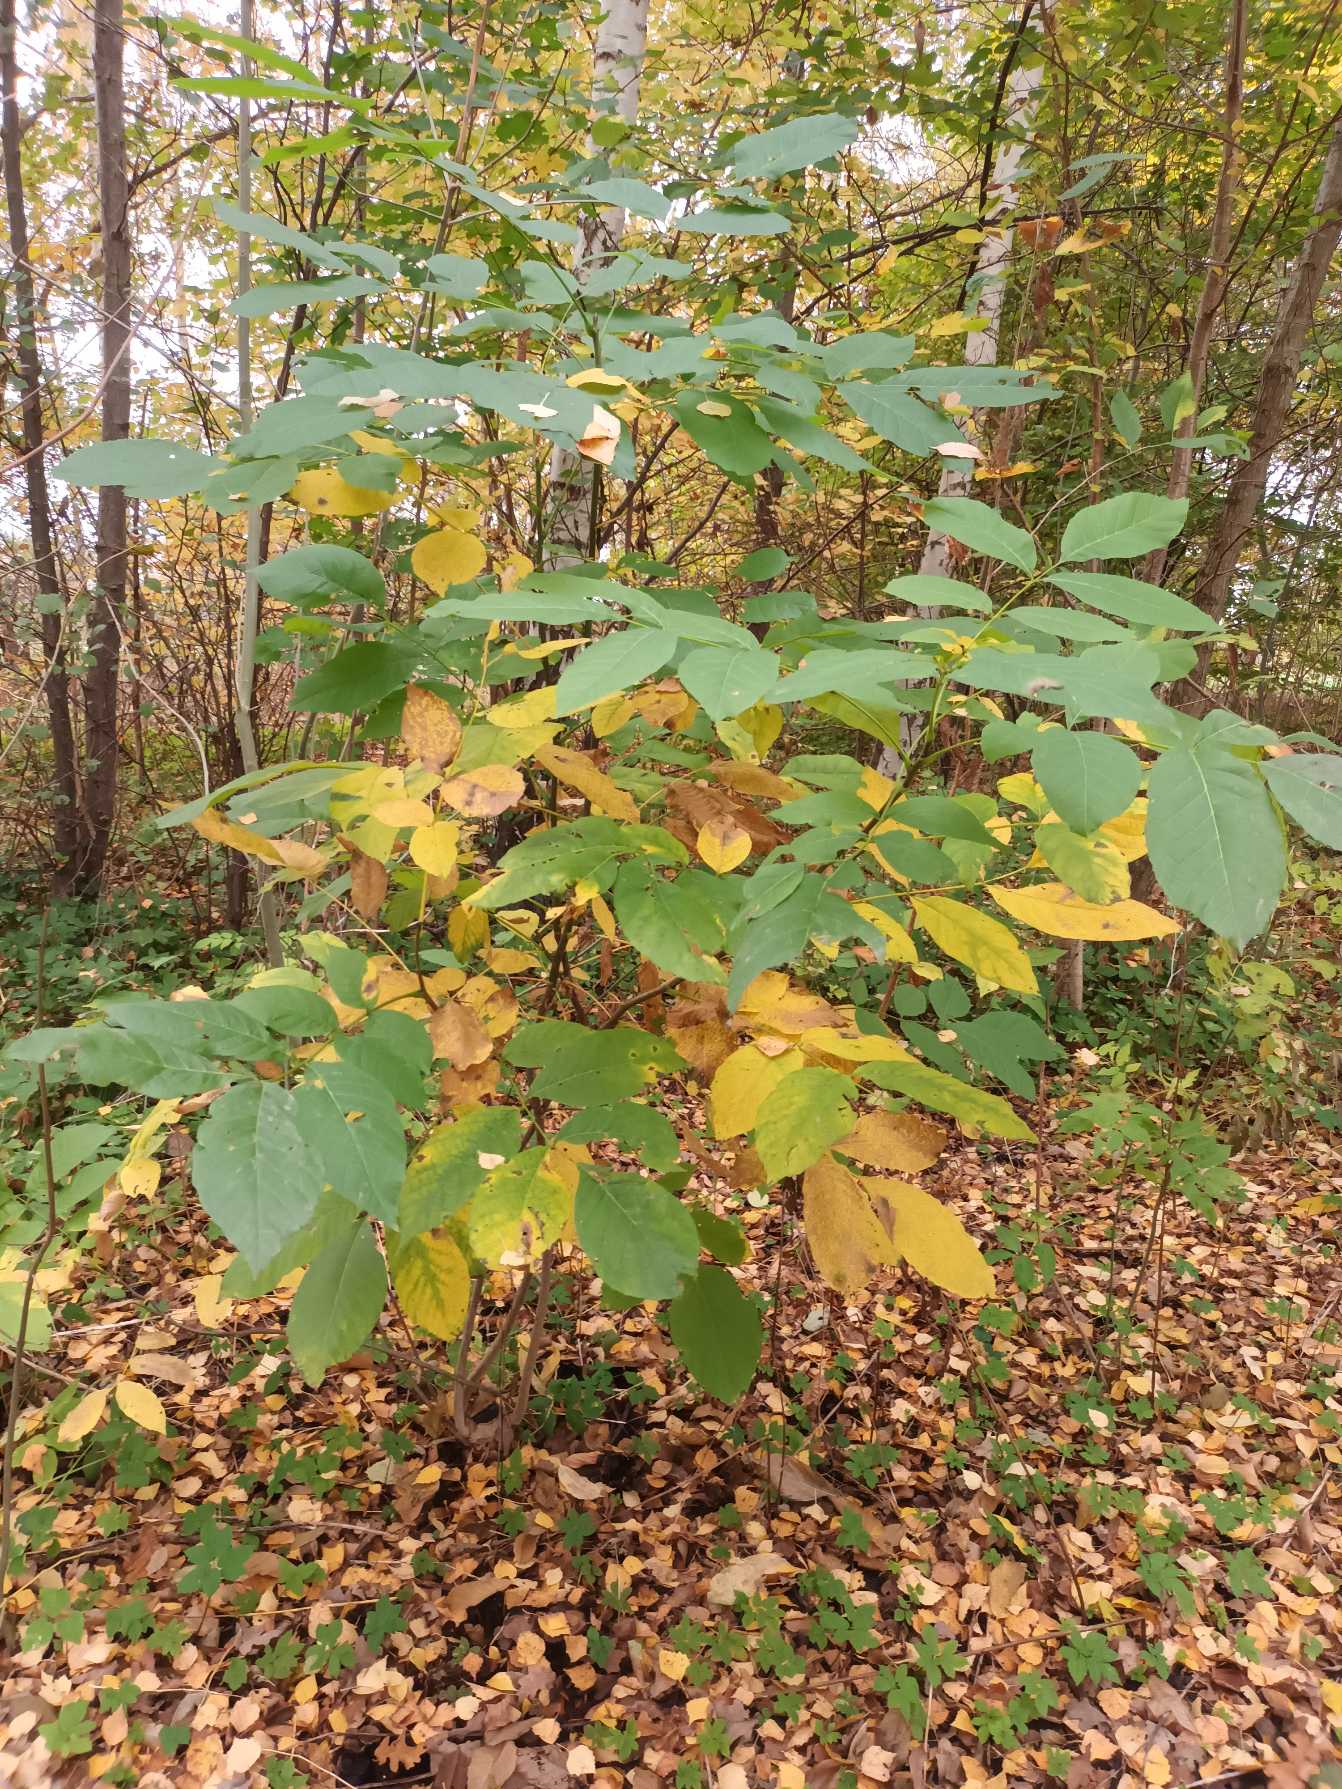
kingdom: Plantae
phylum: Tracheophyta
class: Magnoliopsida
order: Fagales
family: Juglandaceae
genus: Juglans
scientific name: Juglans regia
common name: Almindelig valnød
